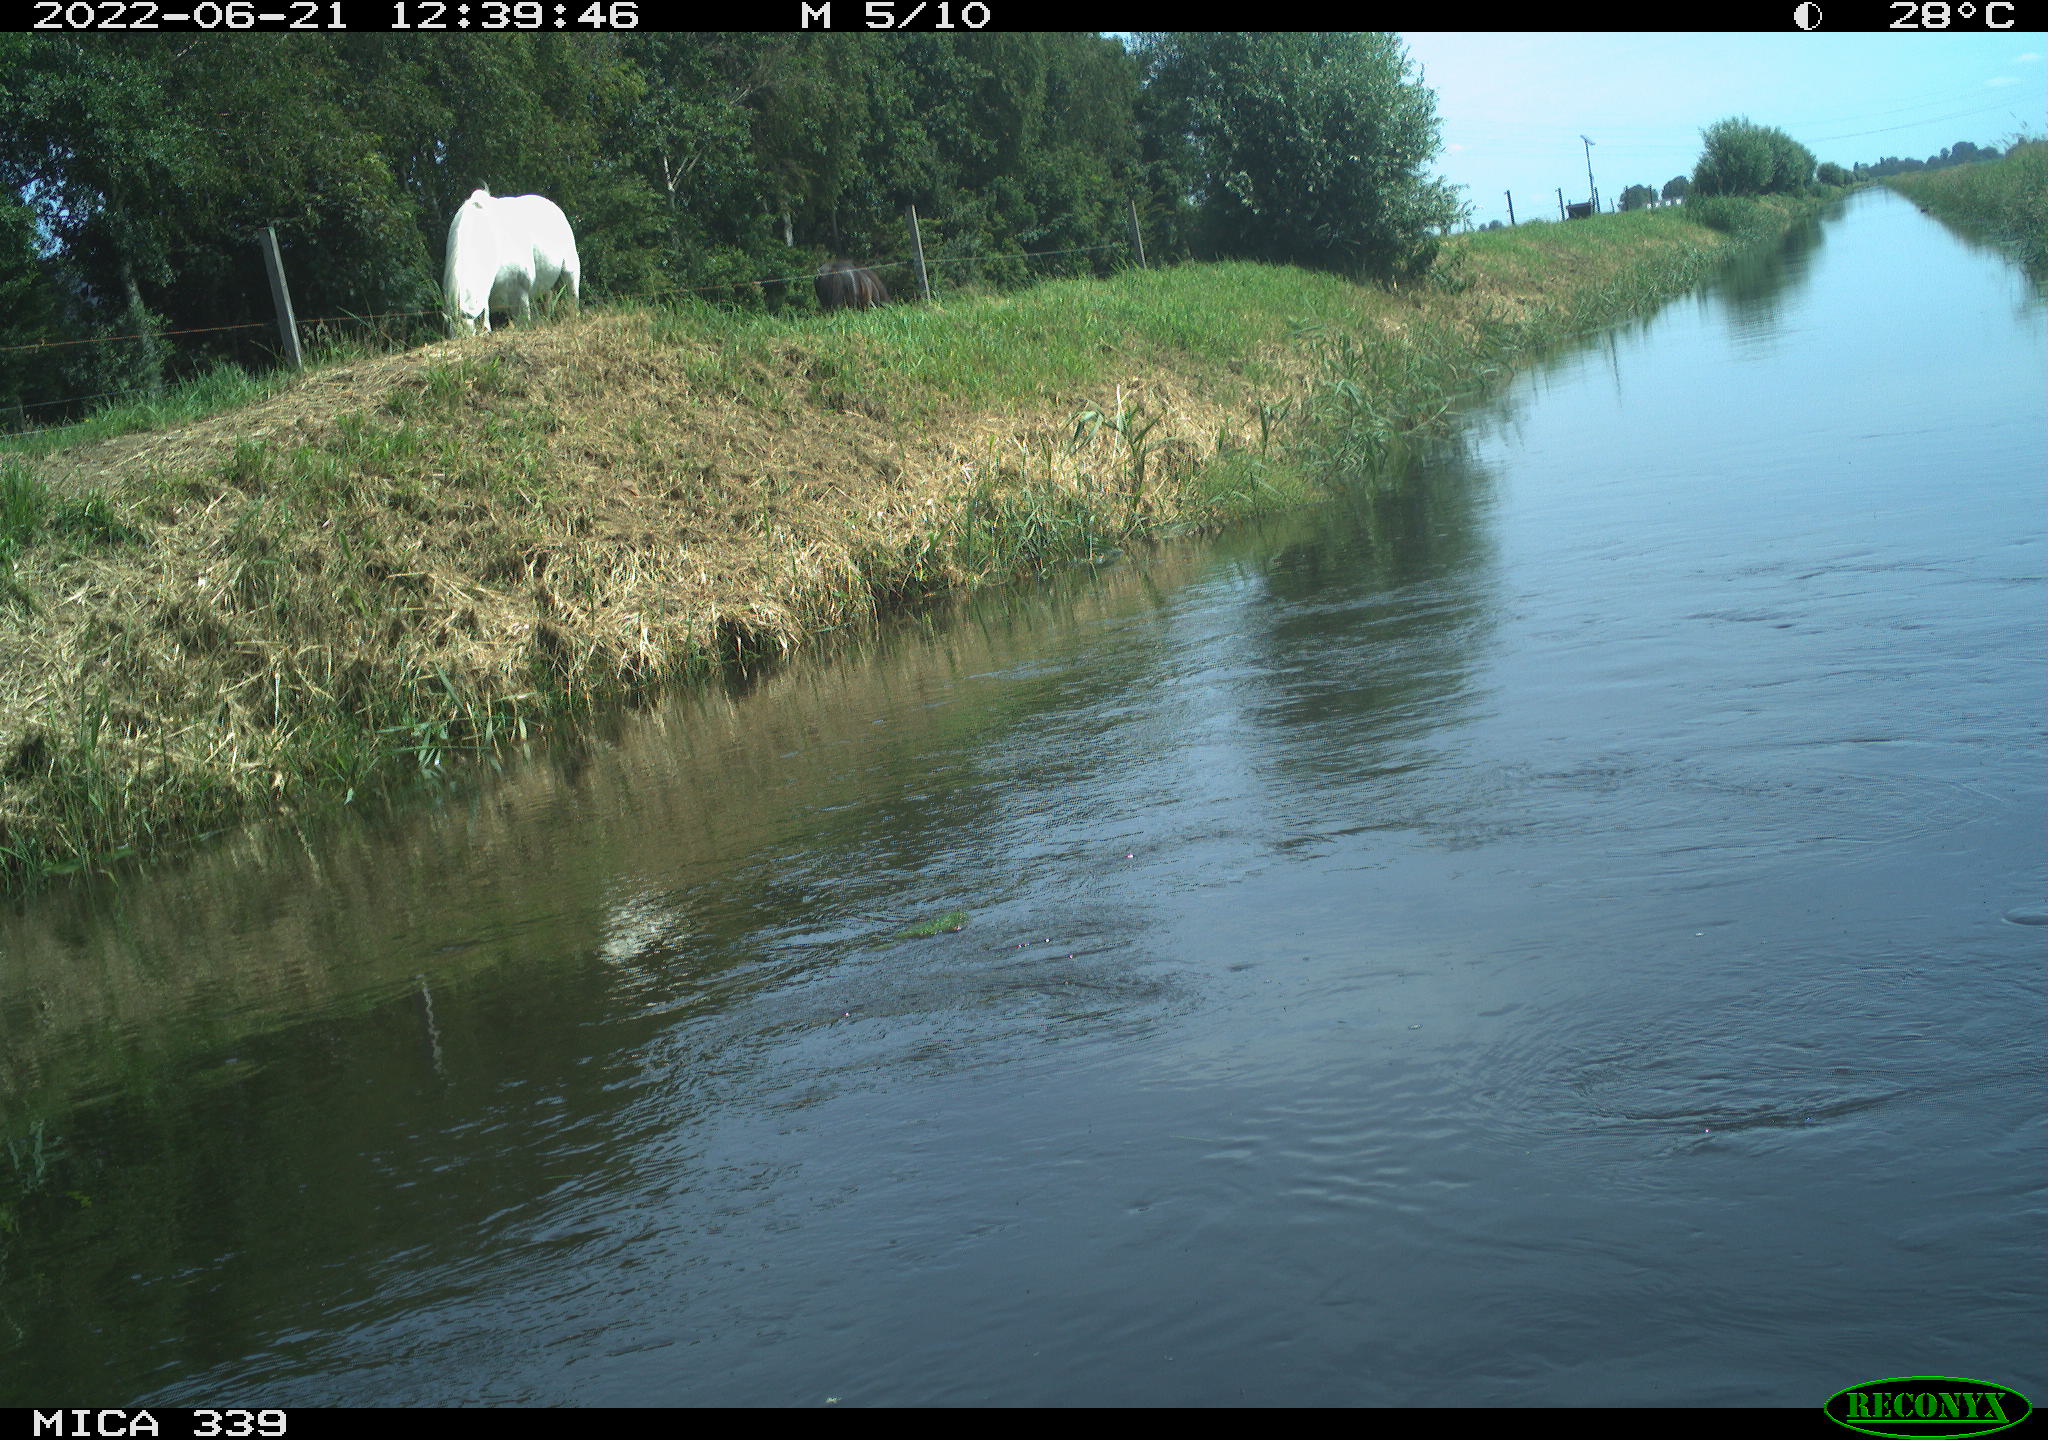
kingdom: Animalia
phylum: Chordata
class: Mammalia
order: Perissodactyla
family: Equidae
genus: Equus
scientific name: Equus caballus
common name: Horse
